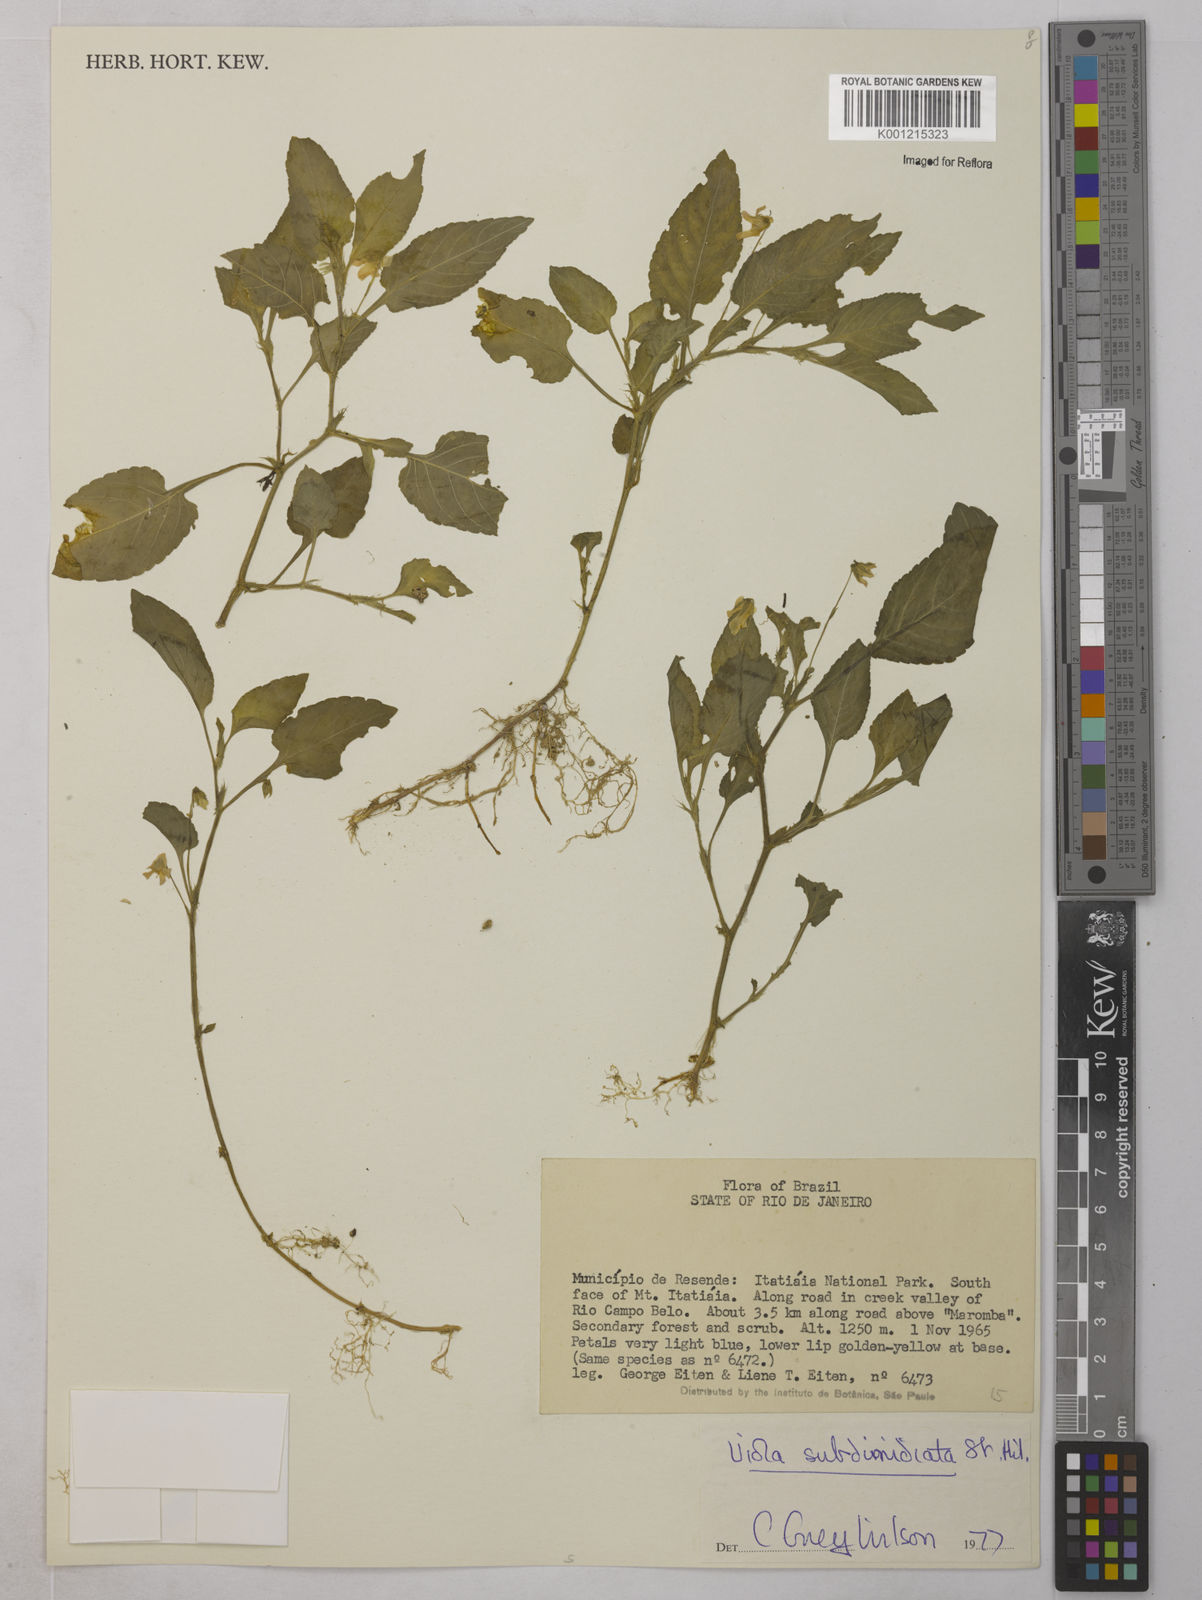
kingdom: Plantae
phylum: Tracheophyta
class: Magnoliopsida
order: Malpighiales
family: Violaceae
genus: Viola
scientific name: Viola subdimidiata
